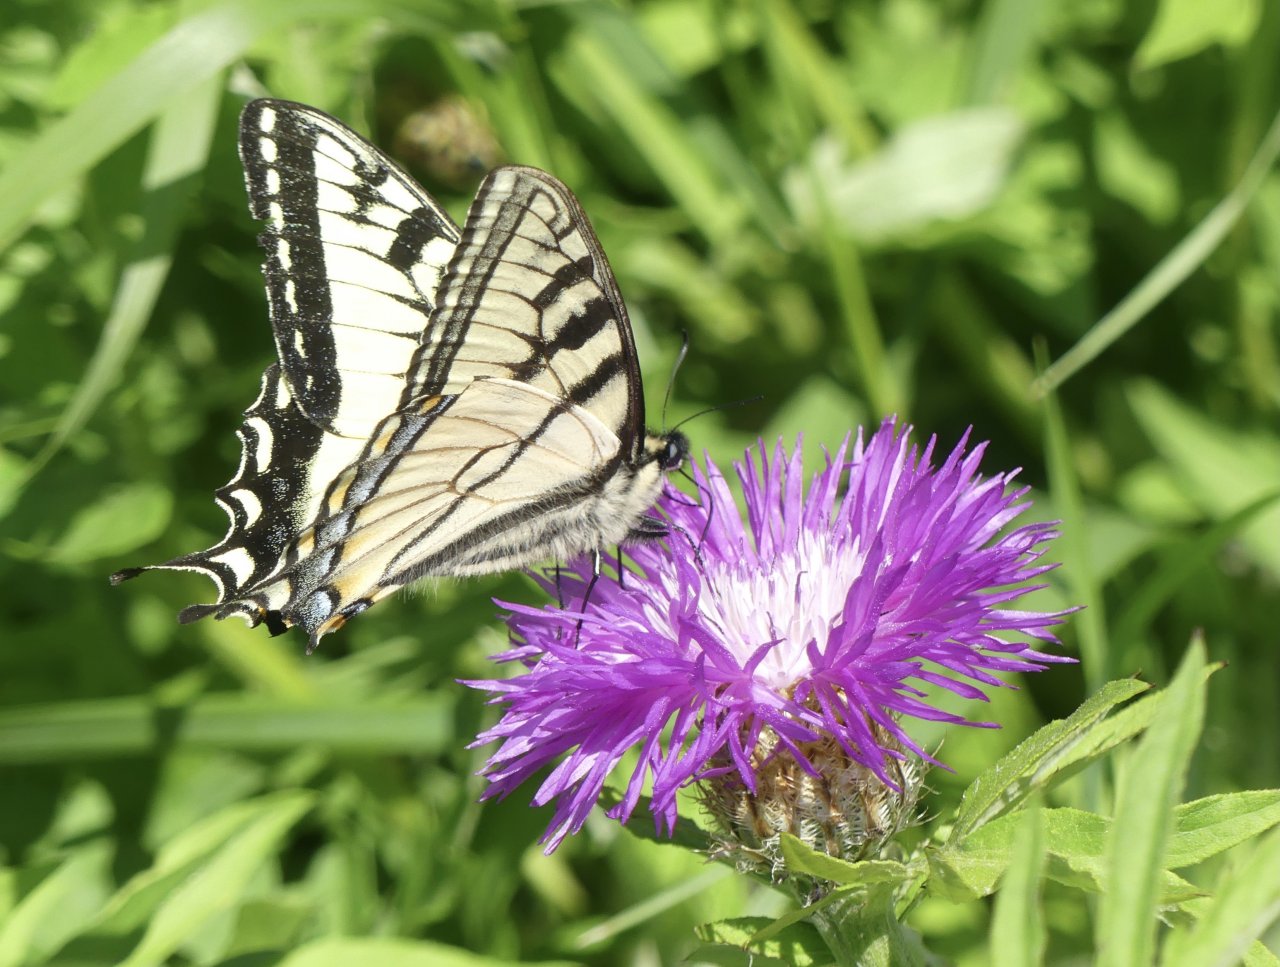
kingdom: Animalia
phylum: Arthropoda
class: Insecta
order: Lepidoptera
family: Papilionidae
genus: Pterourus
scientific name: Pterourus canadensis
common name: Canadian Tiger Swallowtail
